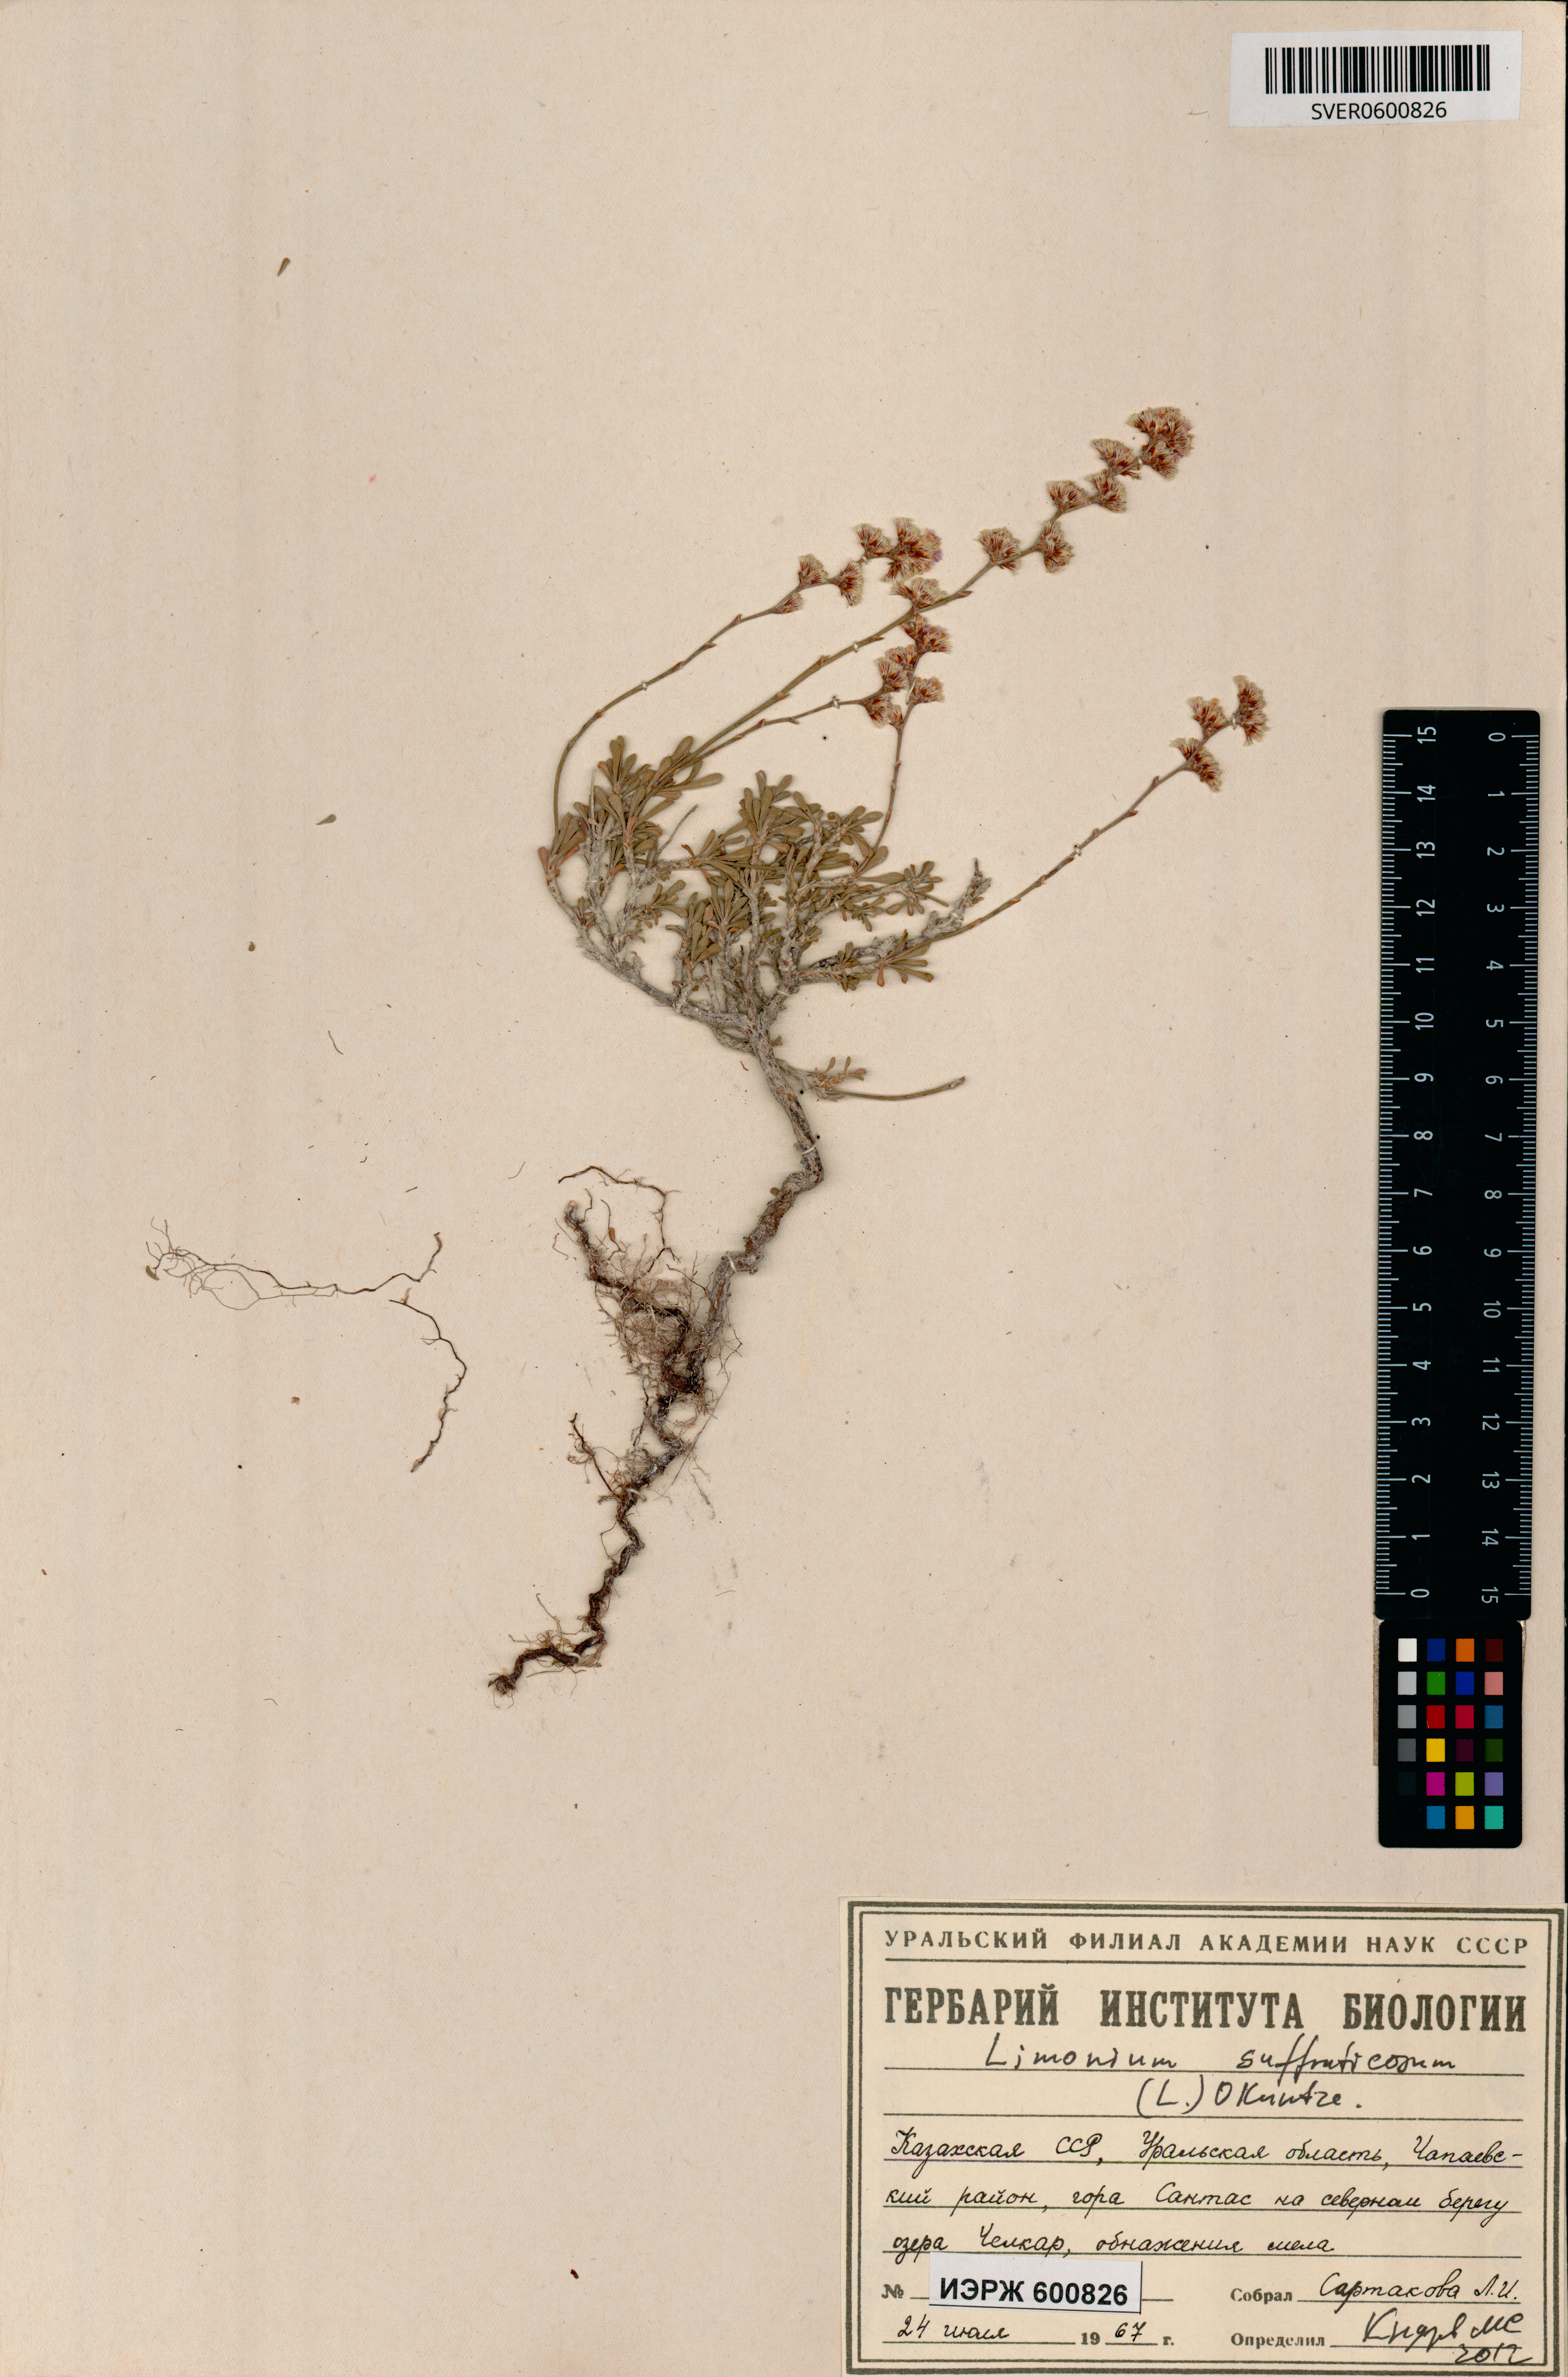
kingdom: Plantae
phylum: Tracheophyta
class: Magnoliopsida
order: Caryophyllales
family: Plumbaginaceae
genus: Limonium
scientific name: Limonium suffruticosum
